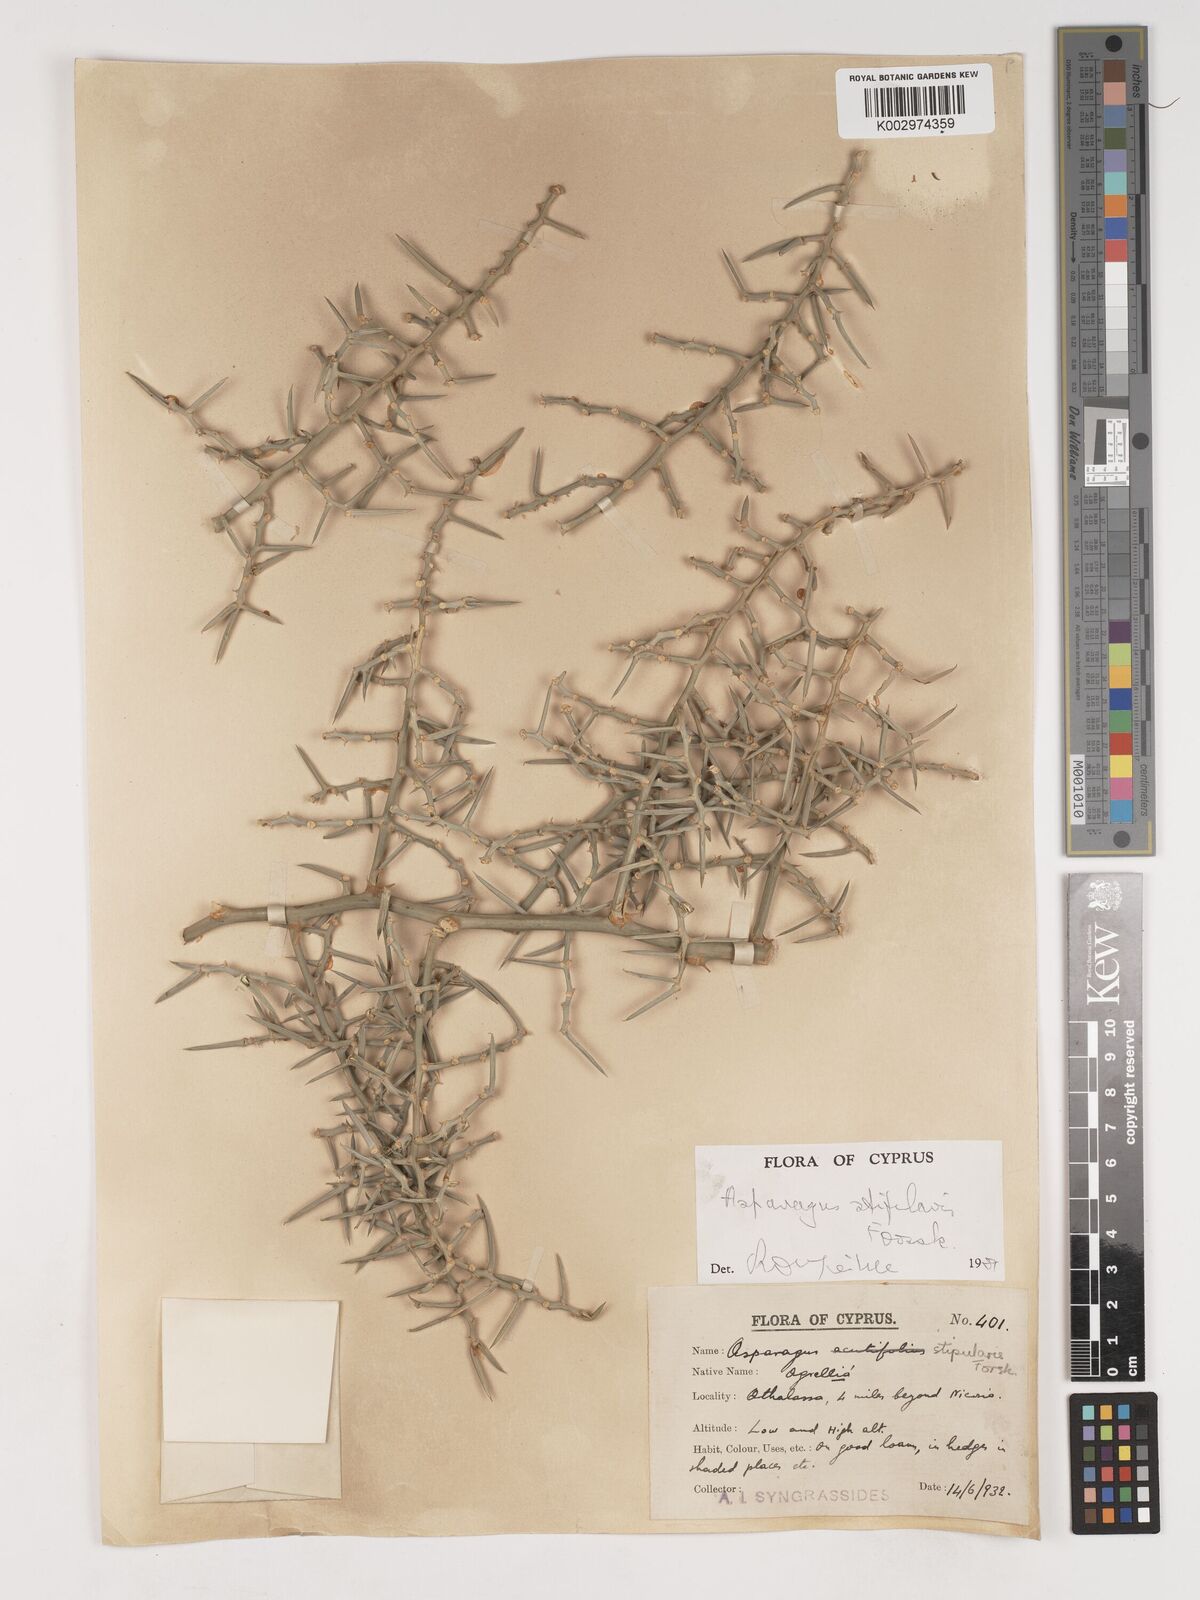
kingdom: Plantae
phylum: Tracheophyta
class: Liliopsida
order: Asparagales
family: Asparagaceae
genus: Asparagus
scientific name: Asparagus horridus
